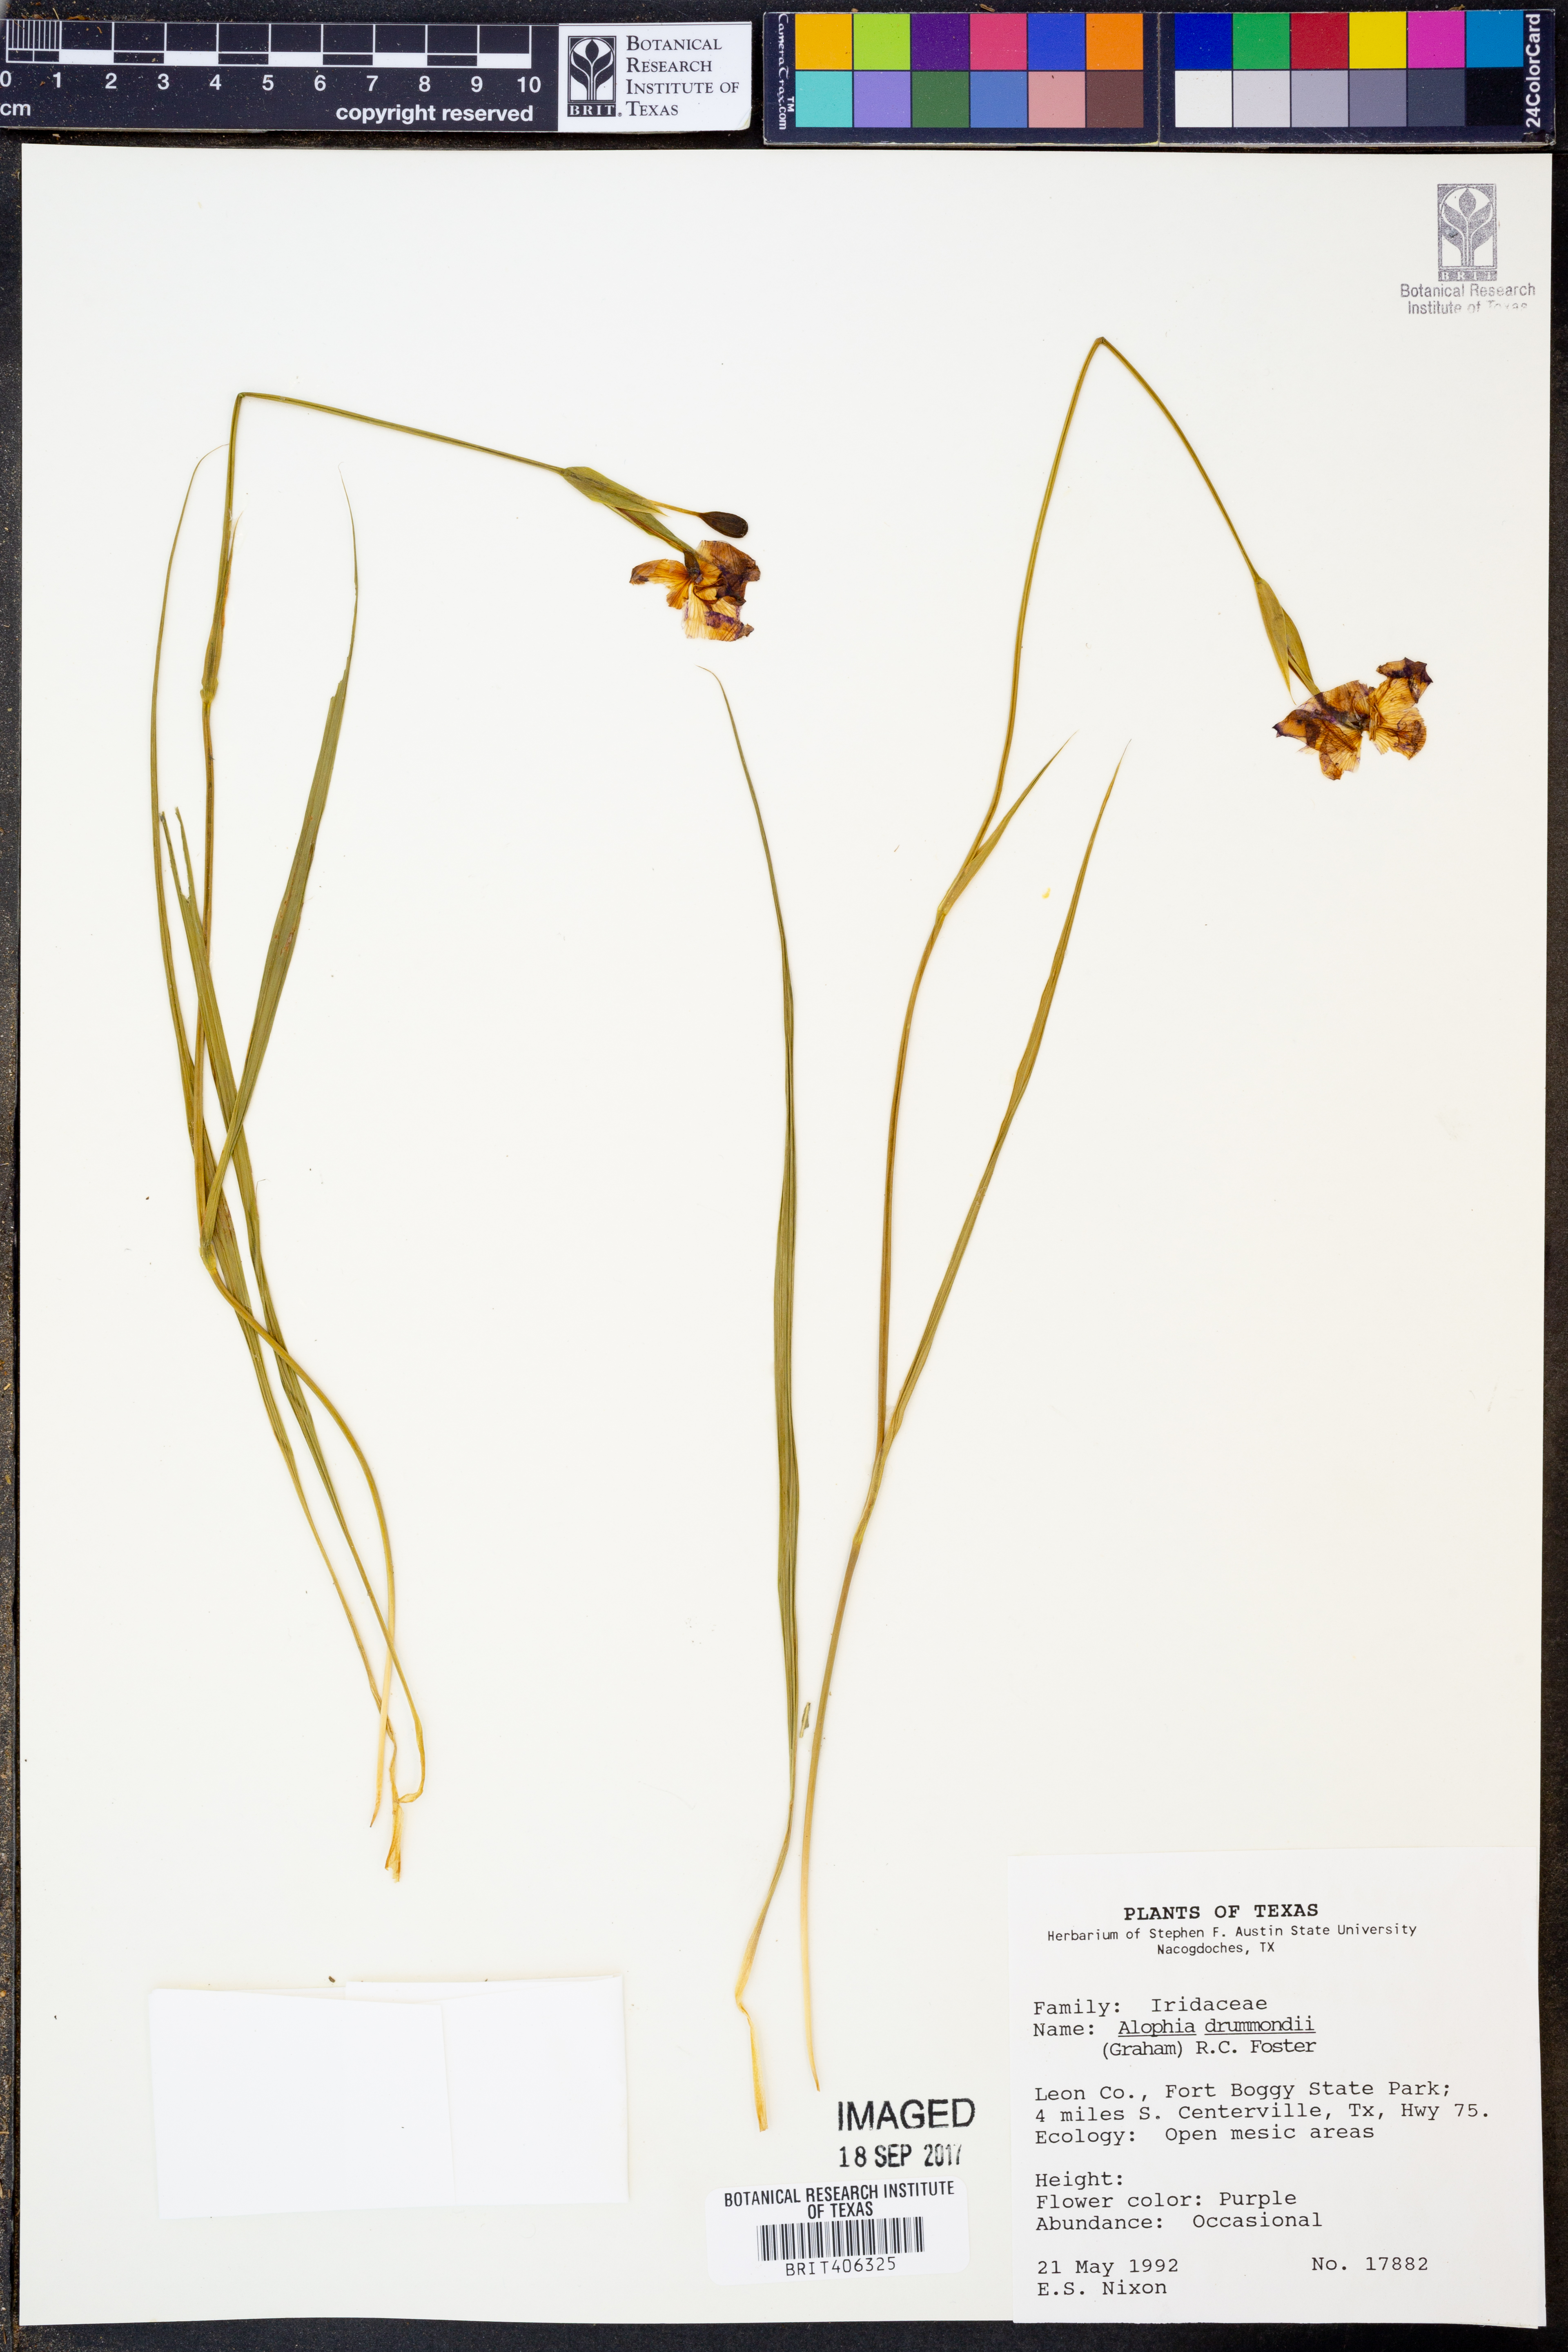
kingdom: Plantae
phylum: Tracheophyta
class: Liliopsida
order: Asparagales
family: Iridaceae
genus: Alophia
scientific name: Alophia drummondii
